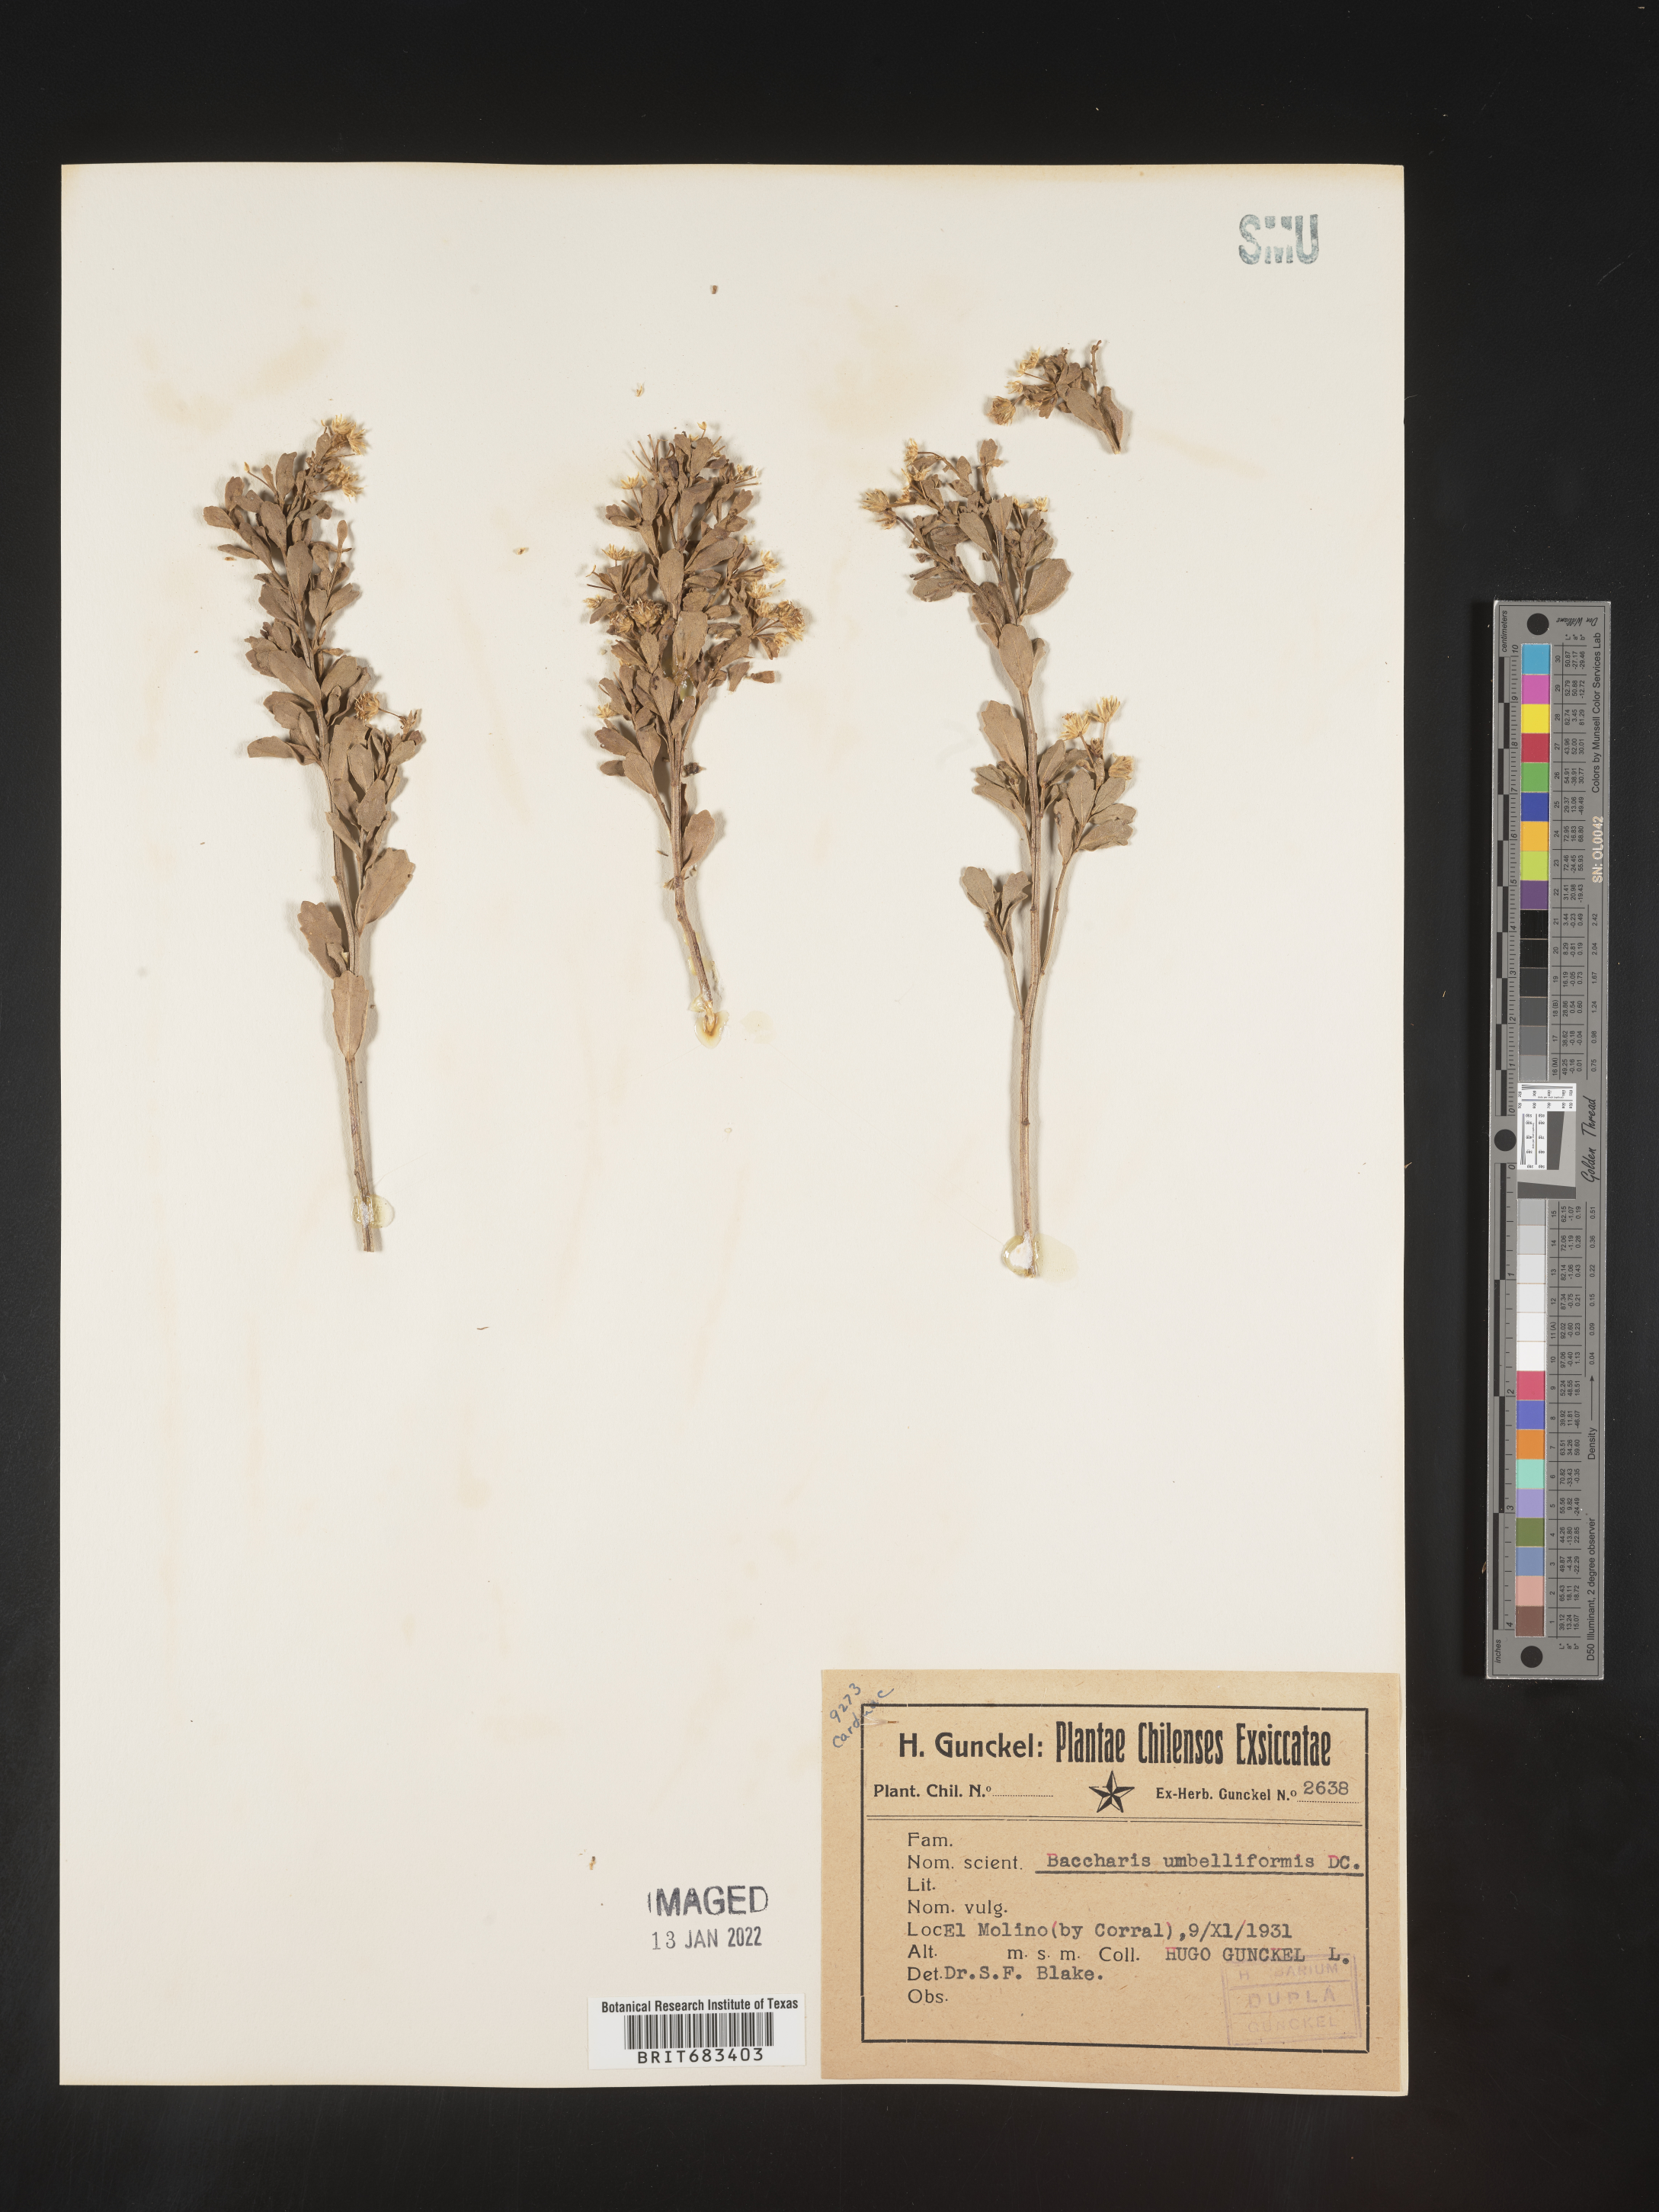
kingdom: Plantae
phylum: Tracheophyta
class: Magnoliopsida
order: Asterales
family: Asteraceae
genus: Baccharis
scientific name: Baccharis
